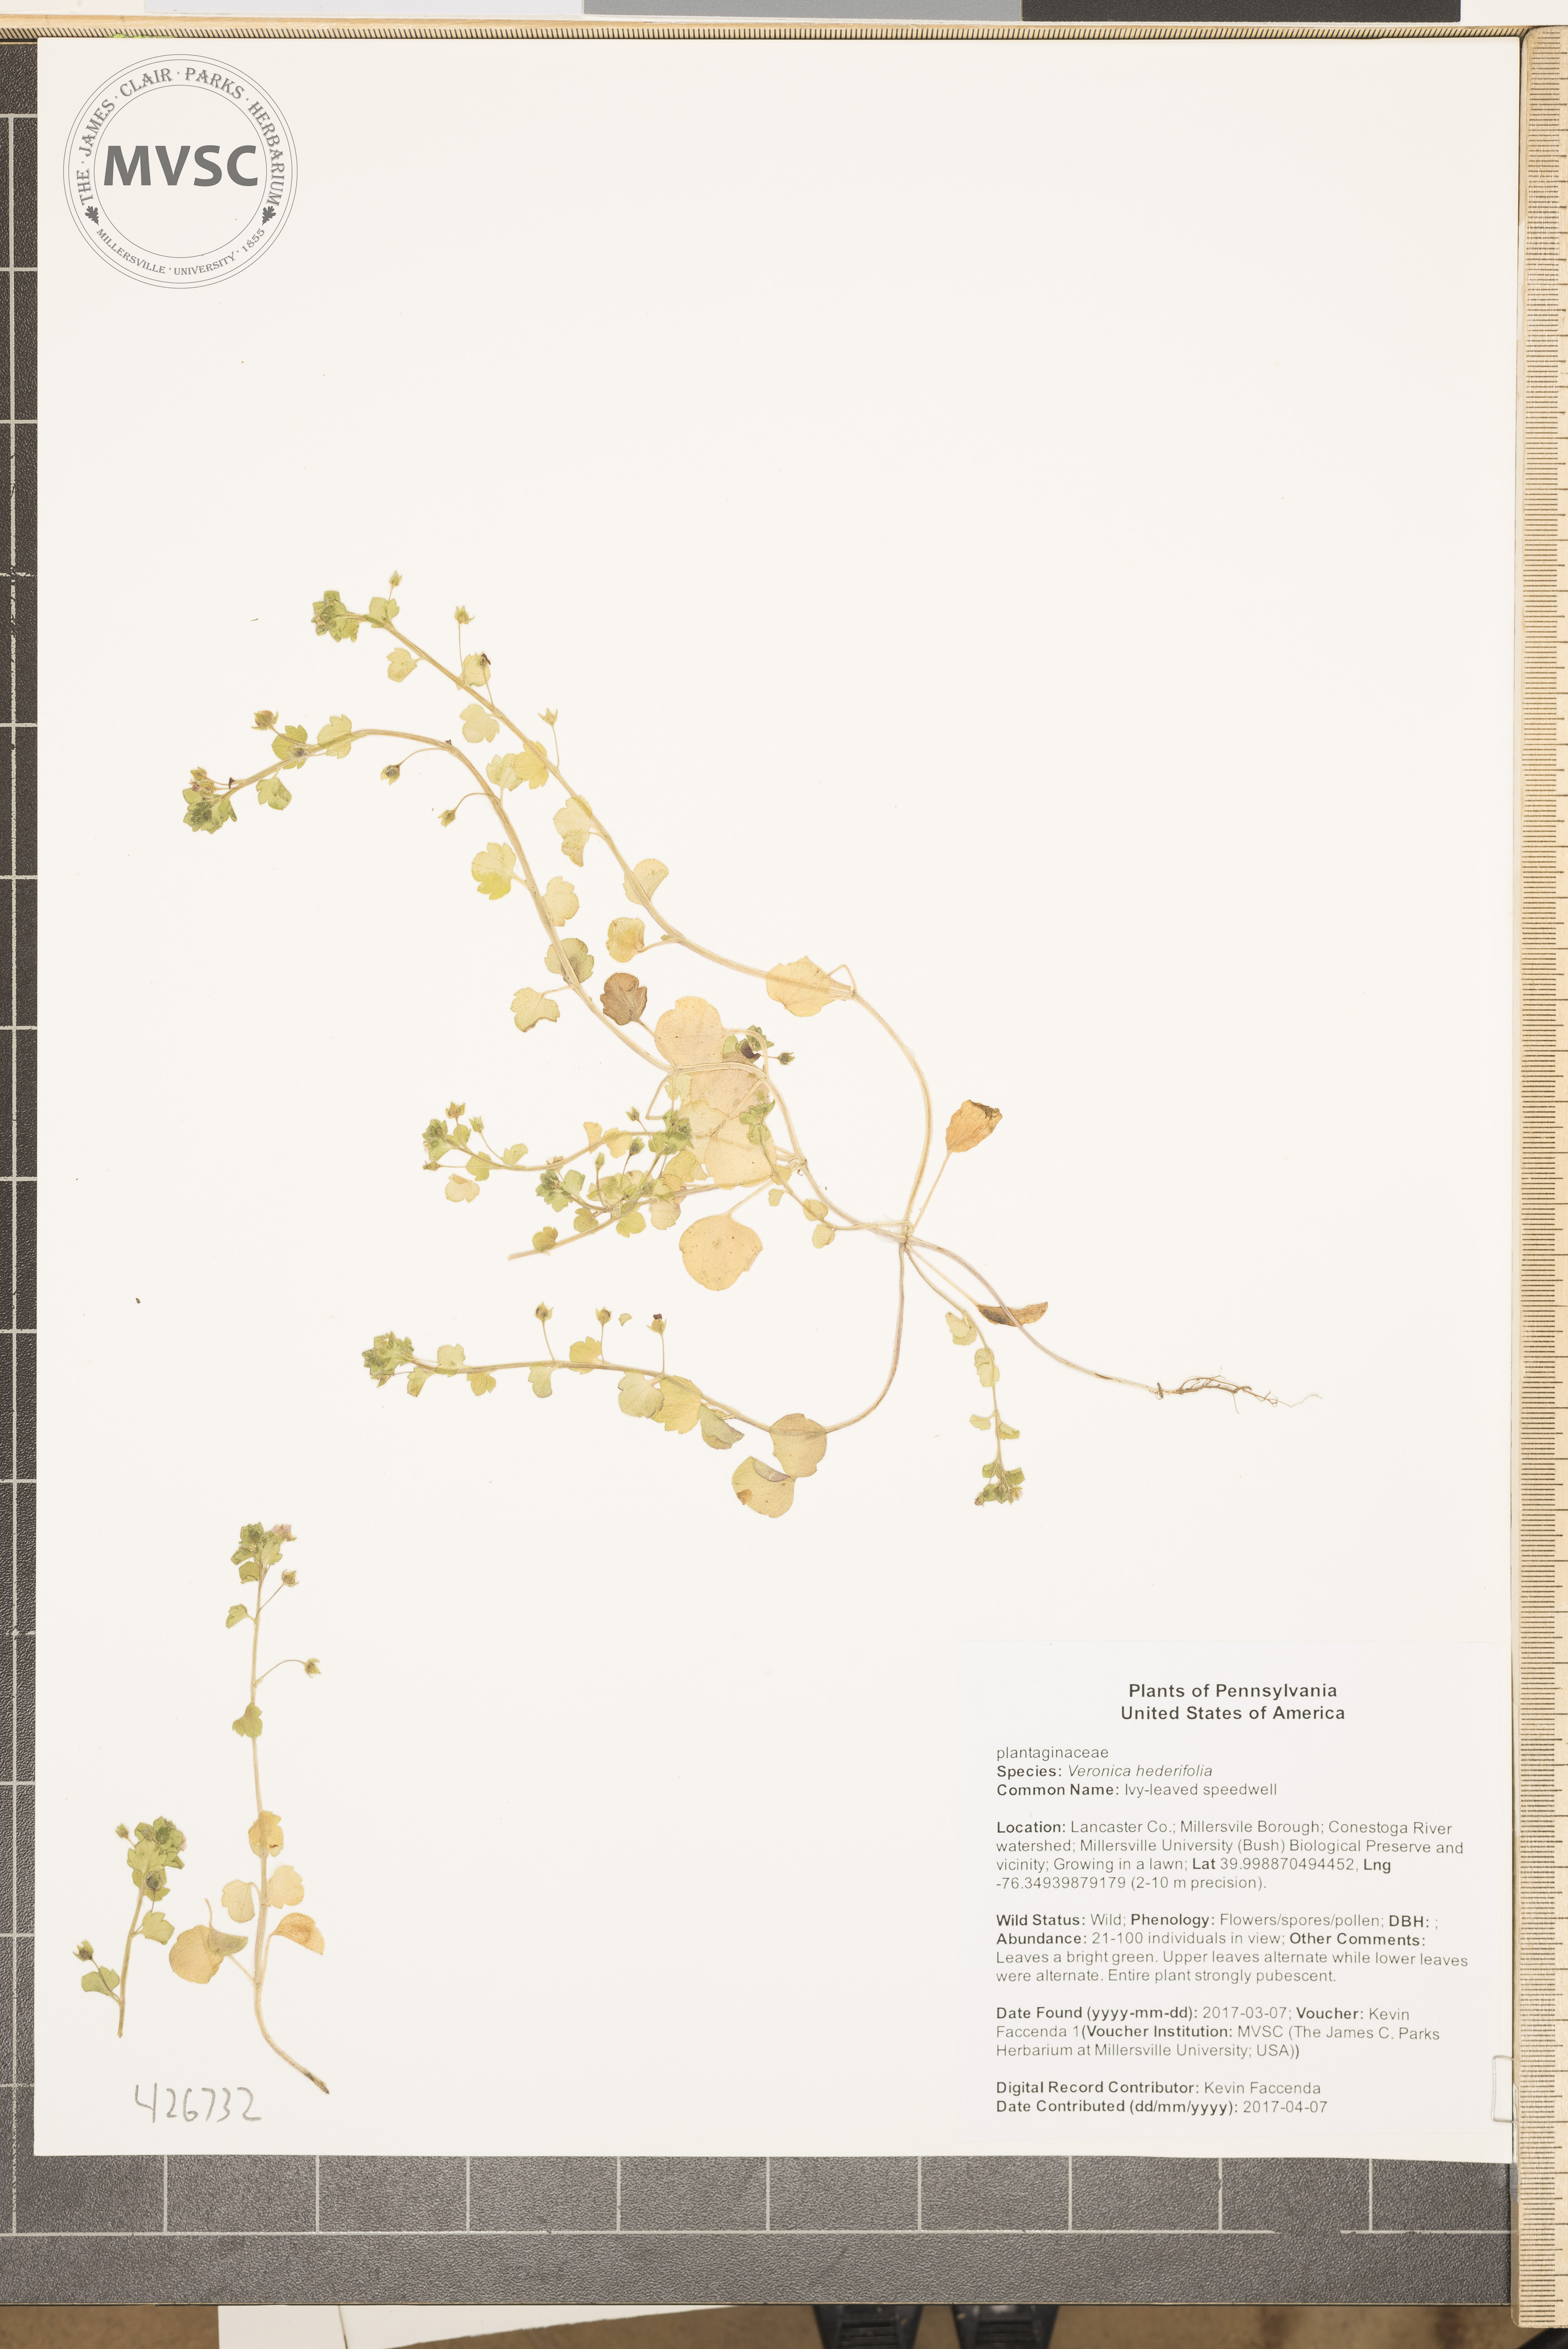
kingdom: Plantae
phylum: Tracheophyta
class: Magnoliopsida
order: Lamiales
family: Plantaginaceae
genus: Veronica
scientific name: Veronica hederifolia
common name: Ivy-leaved speedwell
